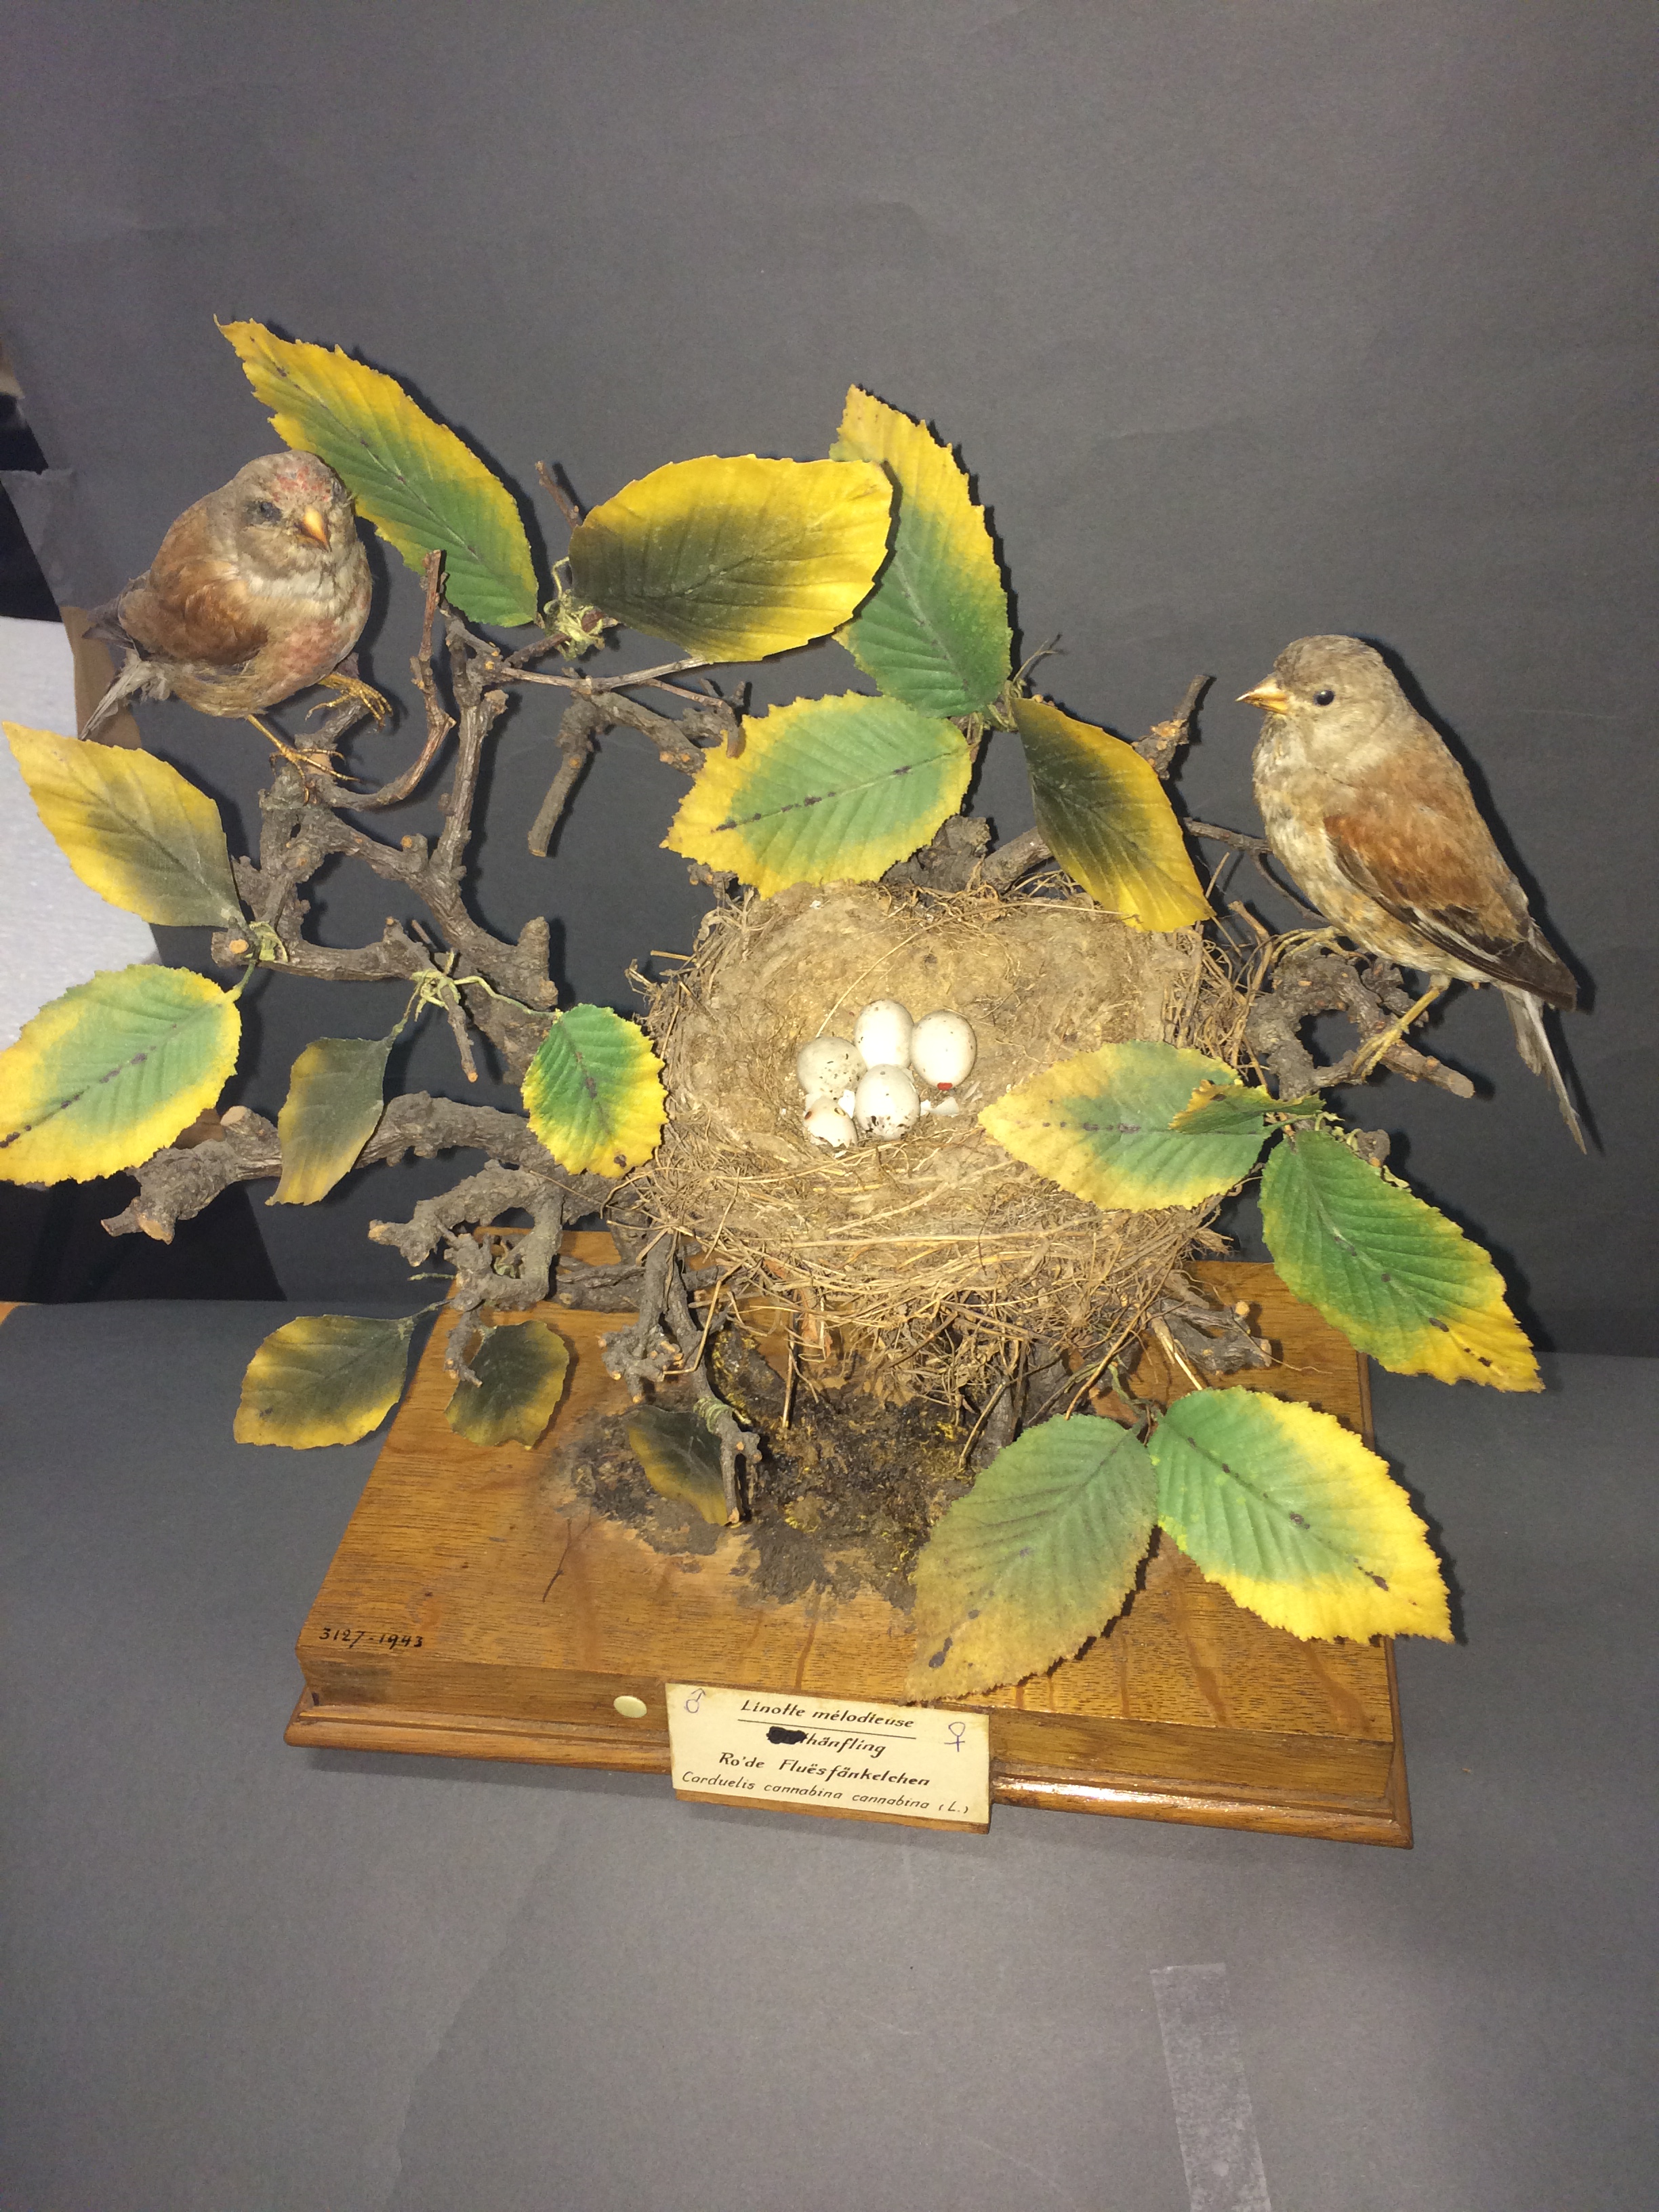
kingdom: Animalia
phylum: Chordata
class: Aves
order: Passeriformes
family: Fringillidae
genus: Linaria
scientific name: Linaria cannabina
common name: Common linnet
